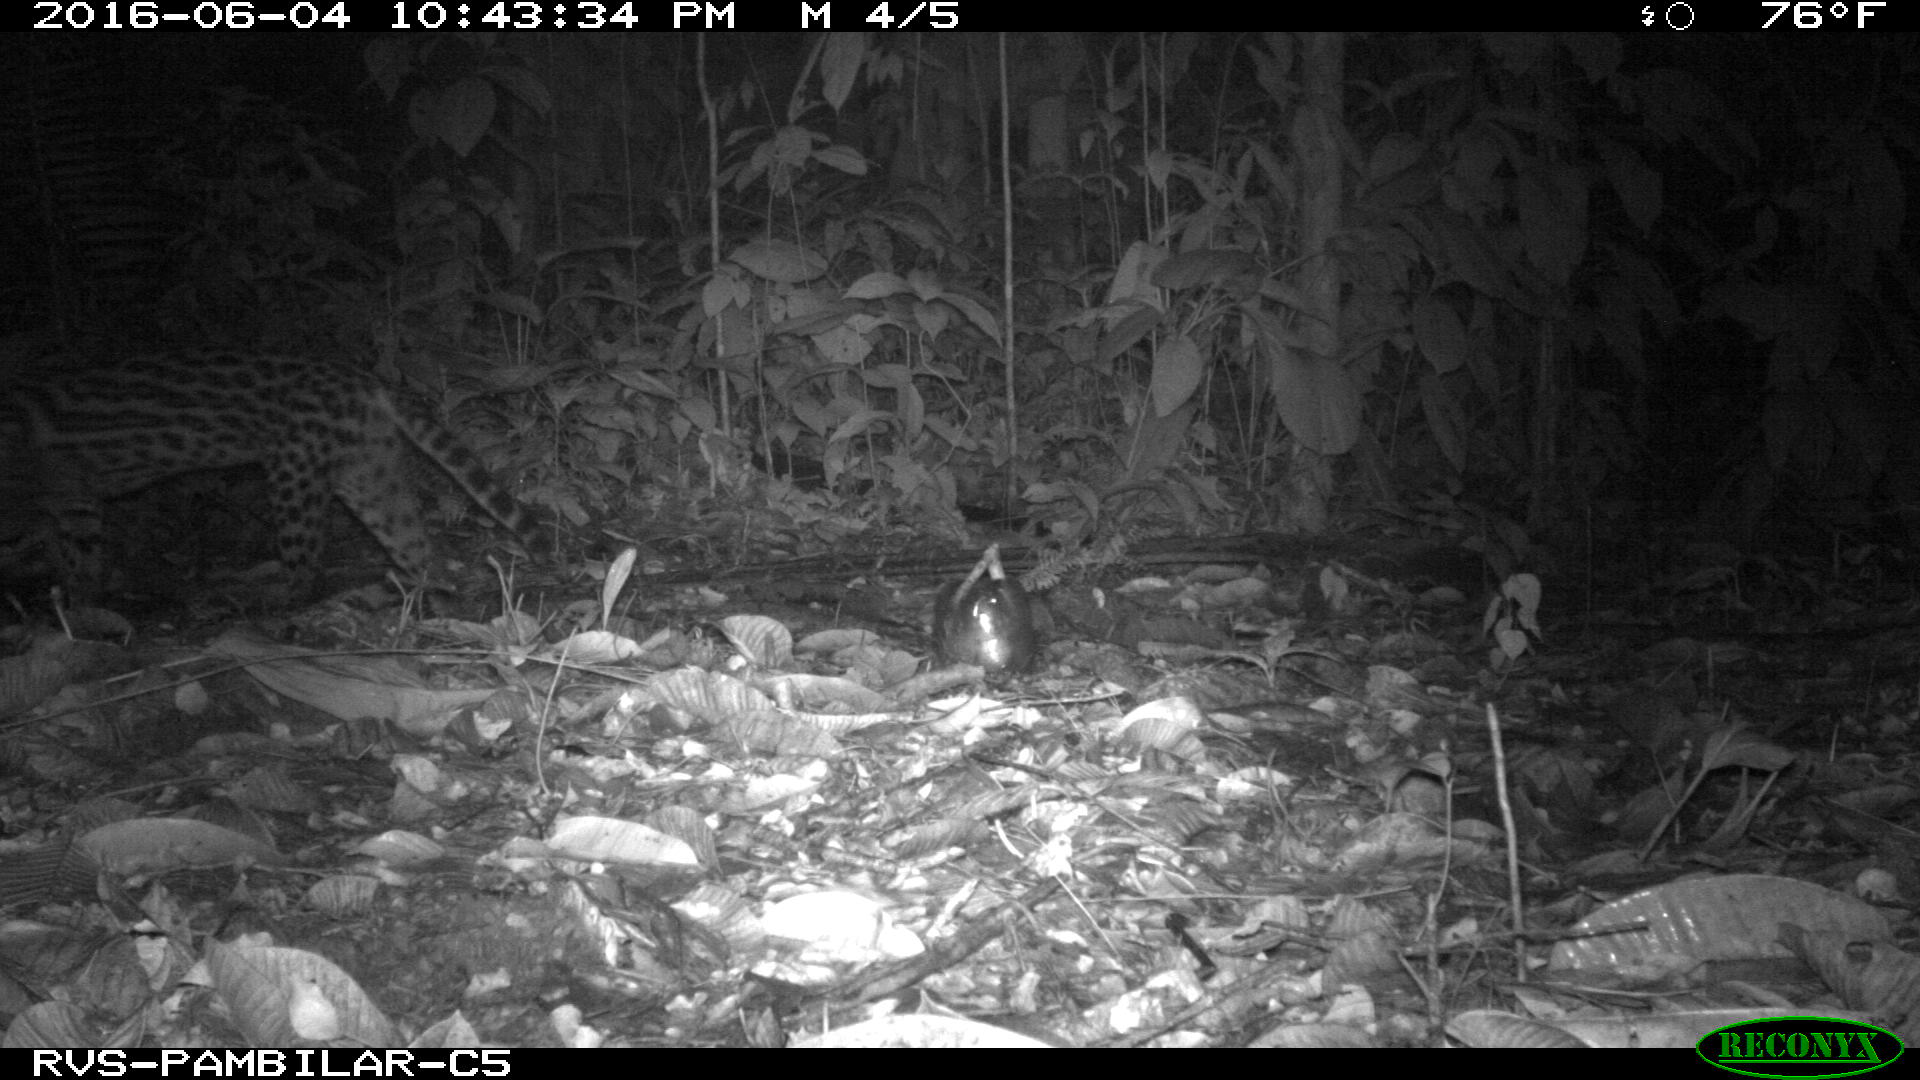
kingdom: Animalia
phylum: Chordata
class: Mammalia
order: Carnivora
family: Felidae
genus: Leopardus
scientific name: Leopardus pardalis
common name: Ocelot
